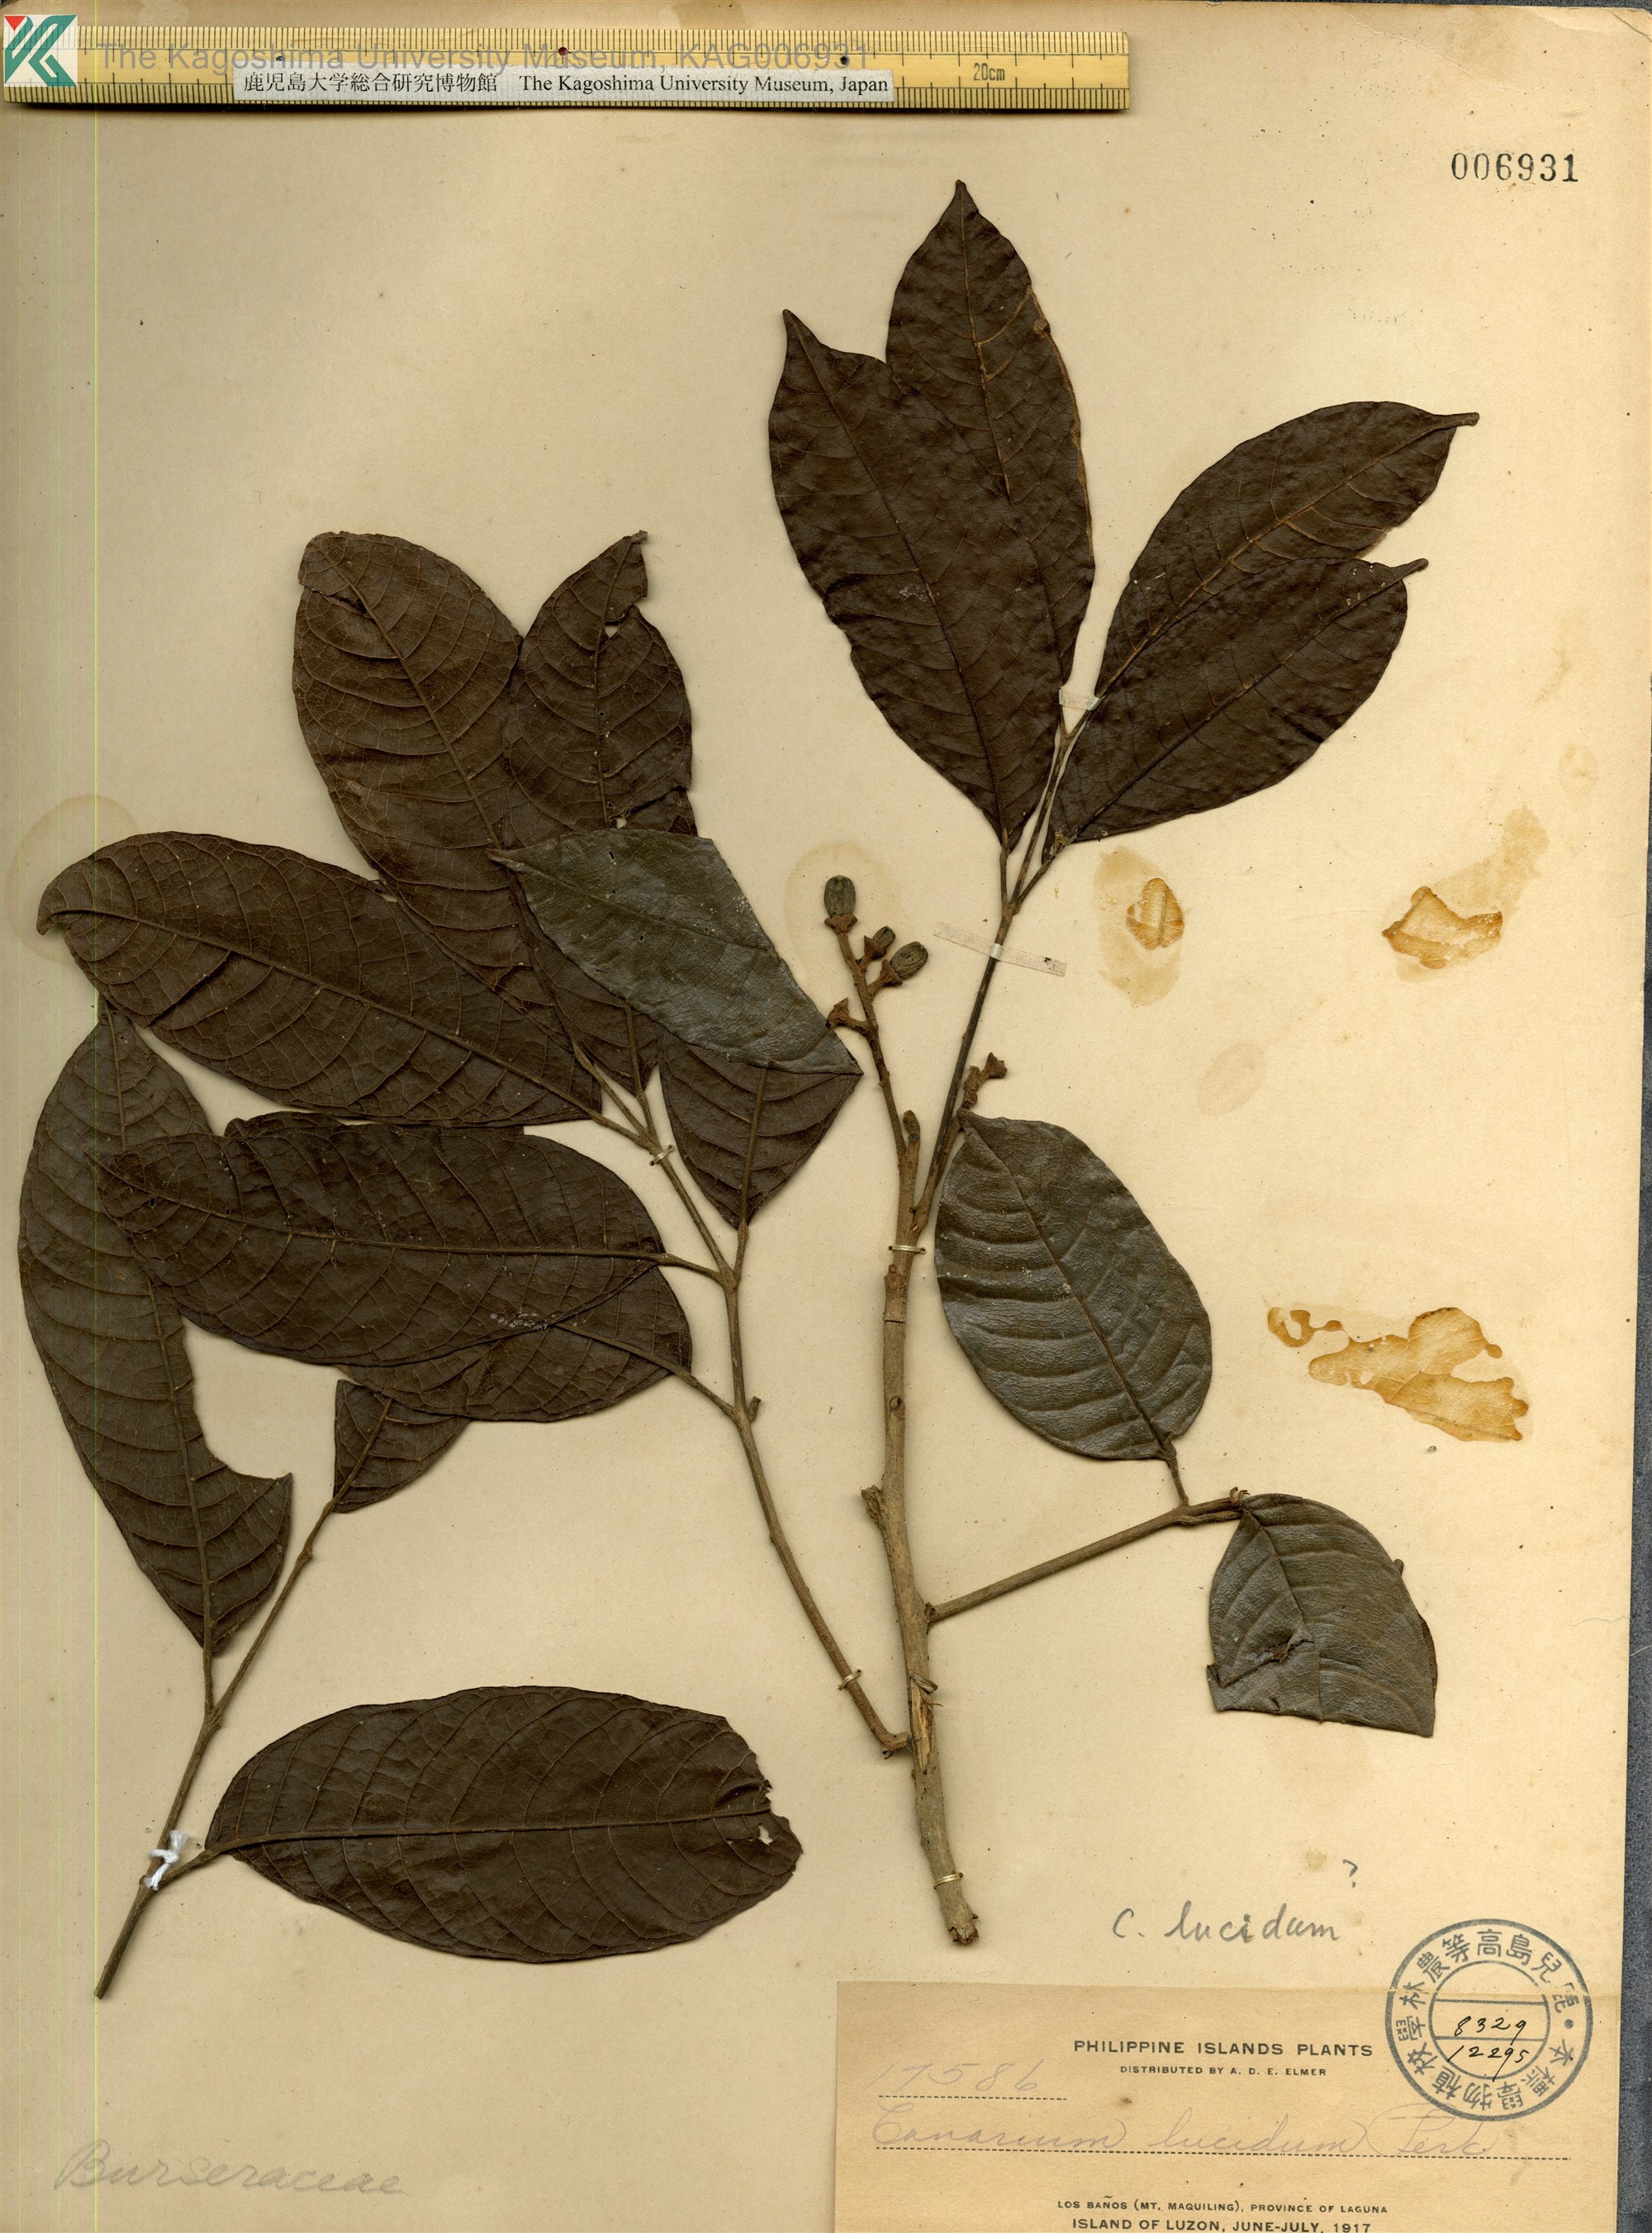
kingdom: Plantae
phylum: Tracheophyta
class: Magnoliopsida
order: Sapindales
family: Burseraceae
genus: Canarium
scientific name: Canarium asperum
